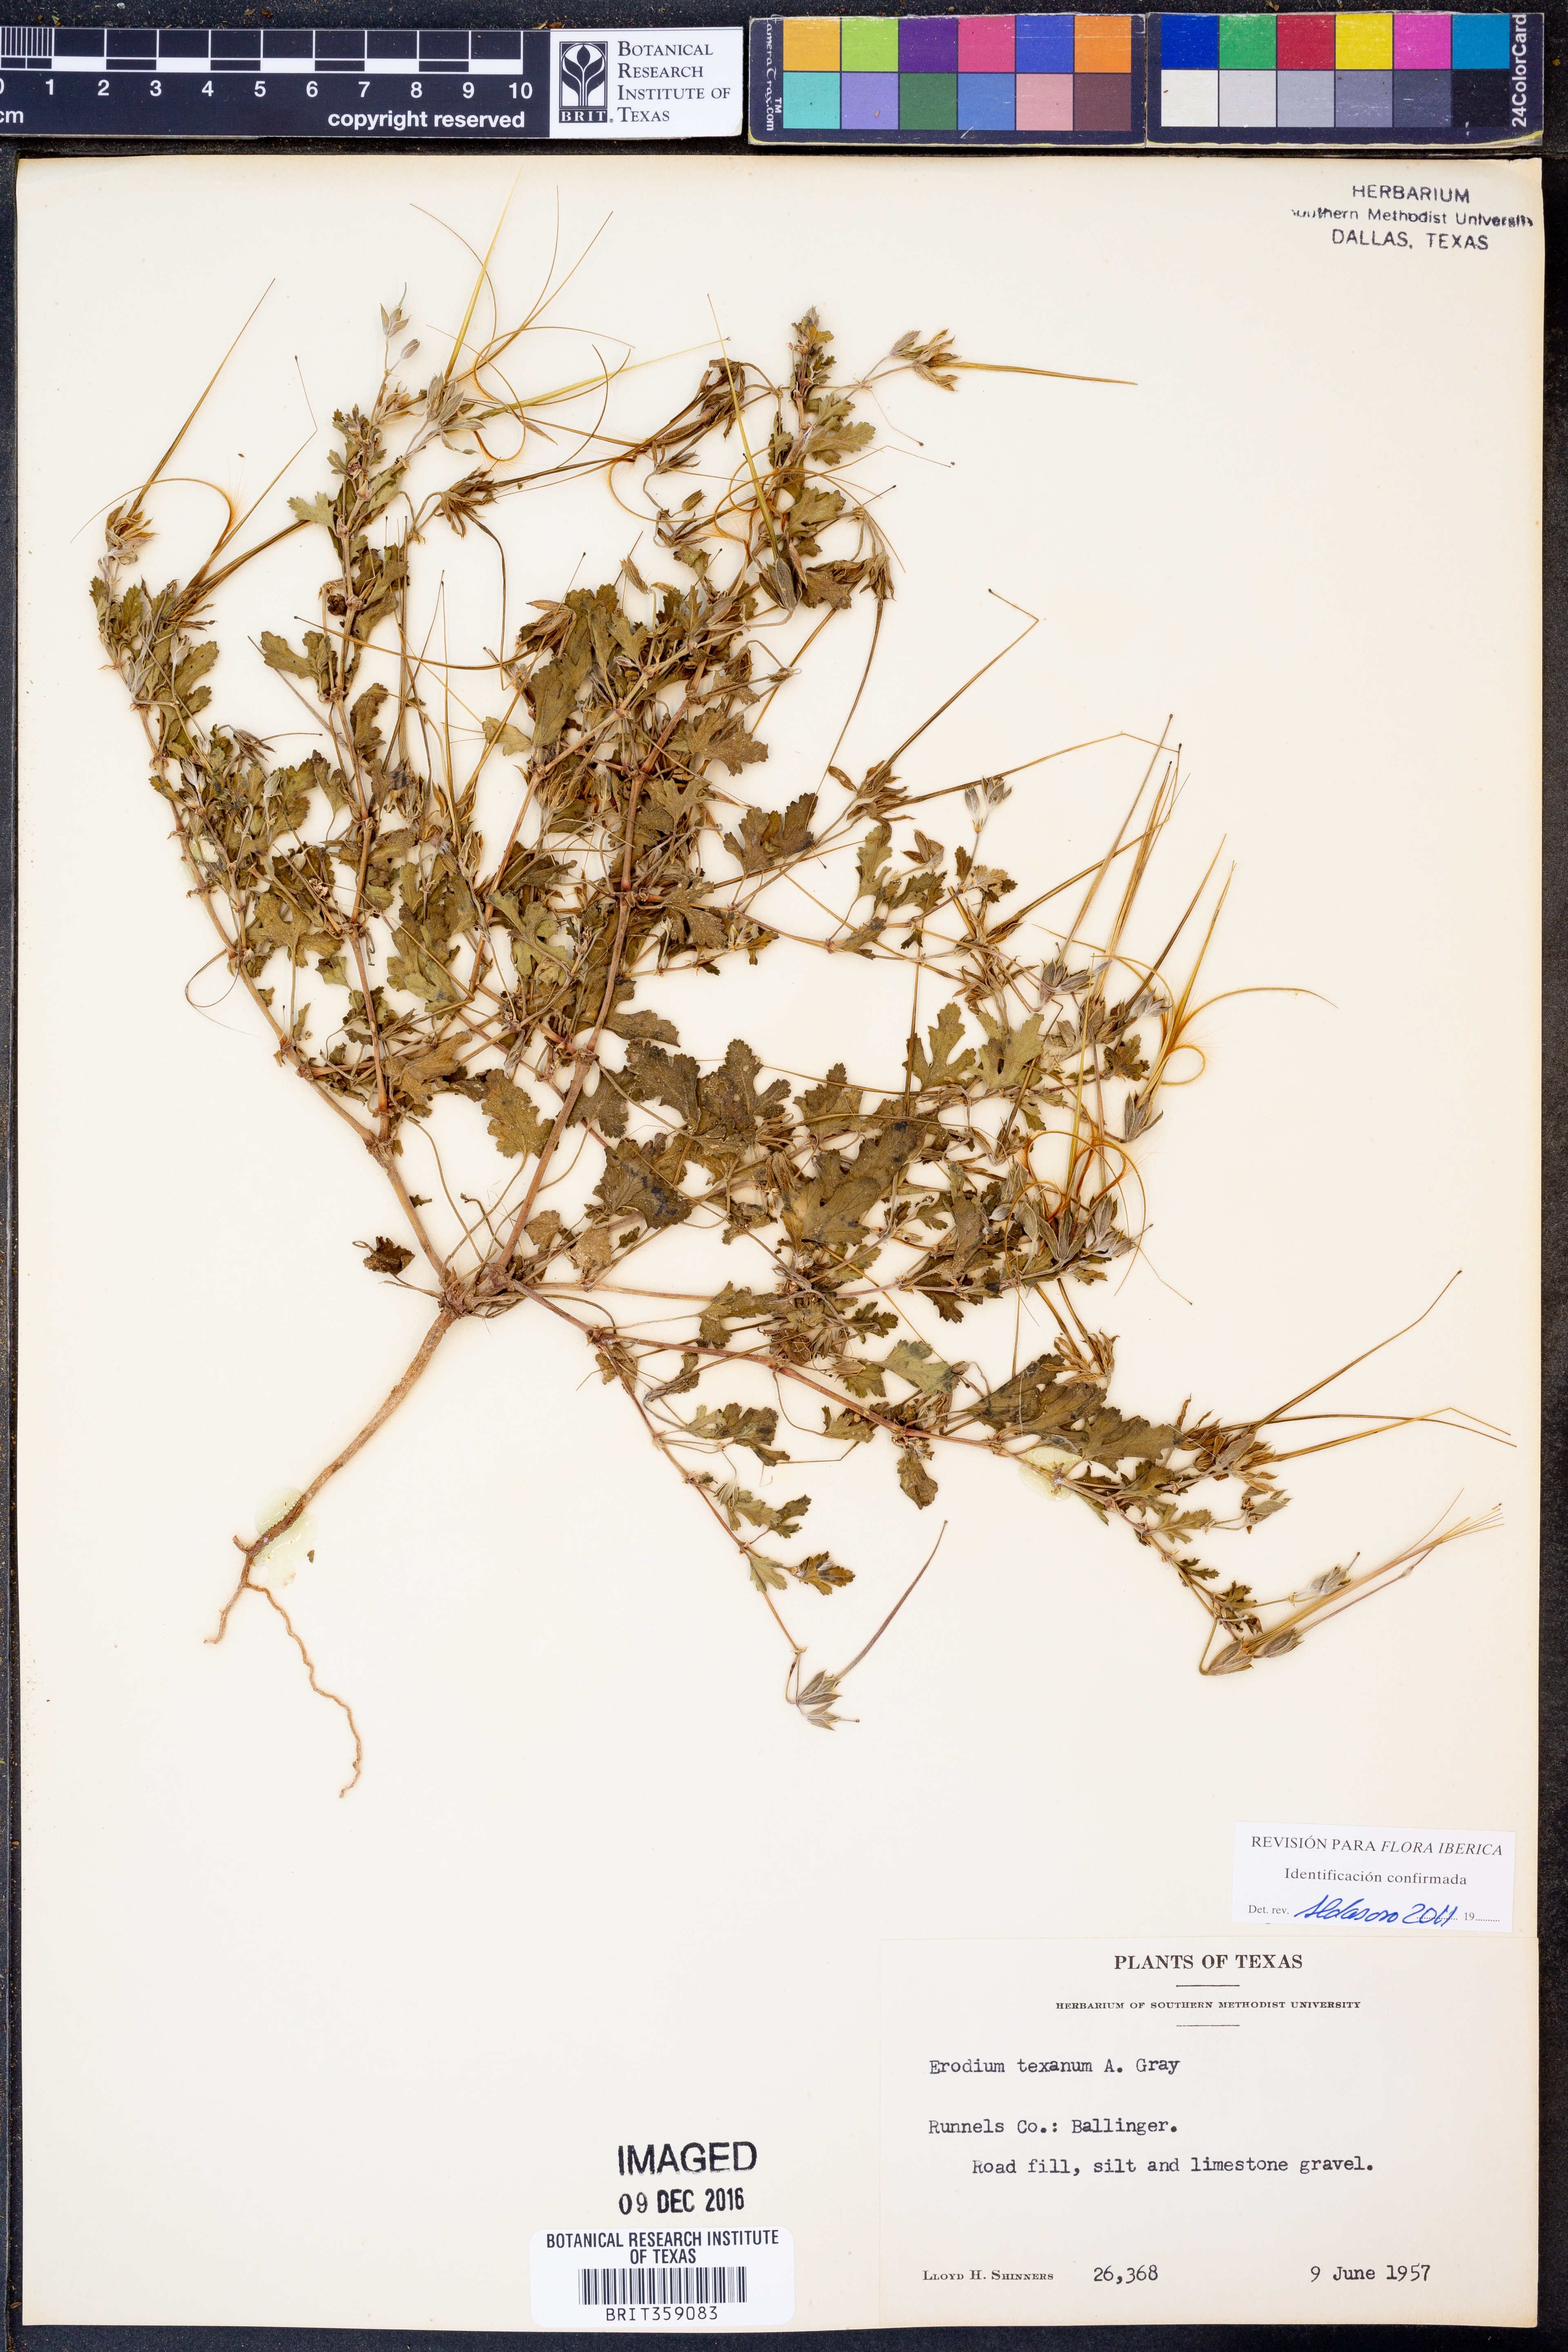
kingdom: Plantae
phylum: Tracheophyta
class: Magnoliopsida
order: Geraniales
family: Geraniaceae
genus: Erodium
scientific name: Erodium texanum
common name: Texas stork's-bill
